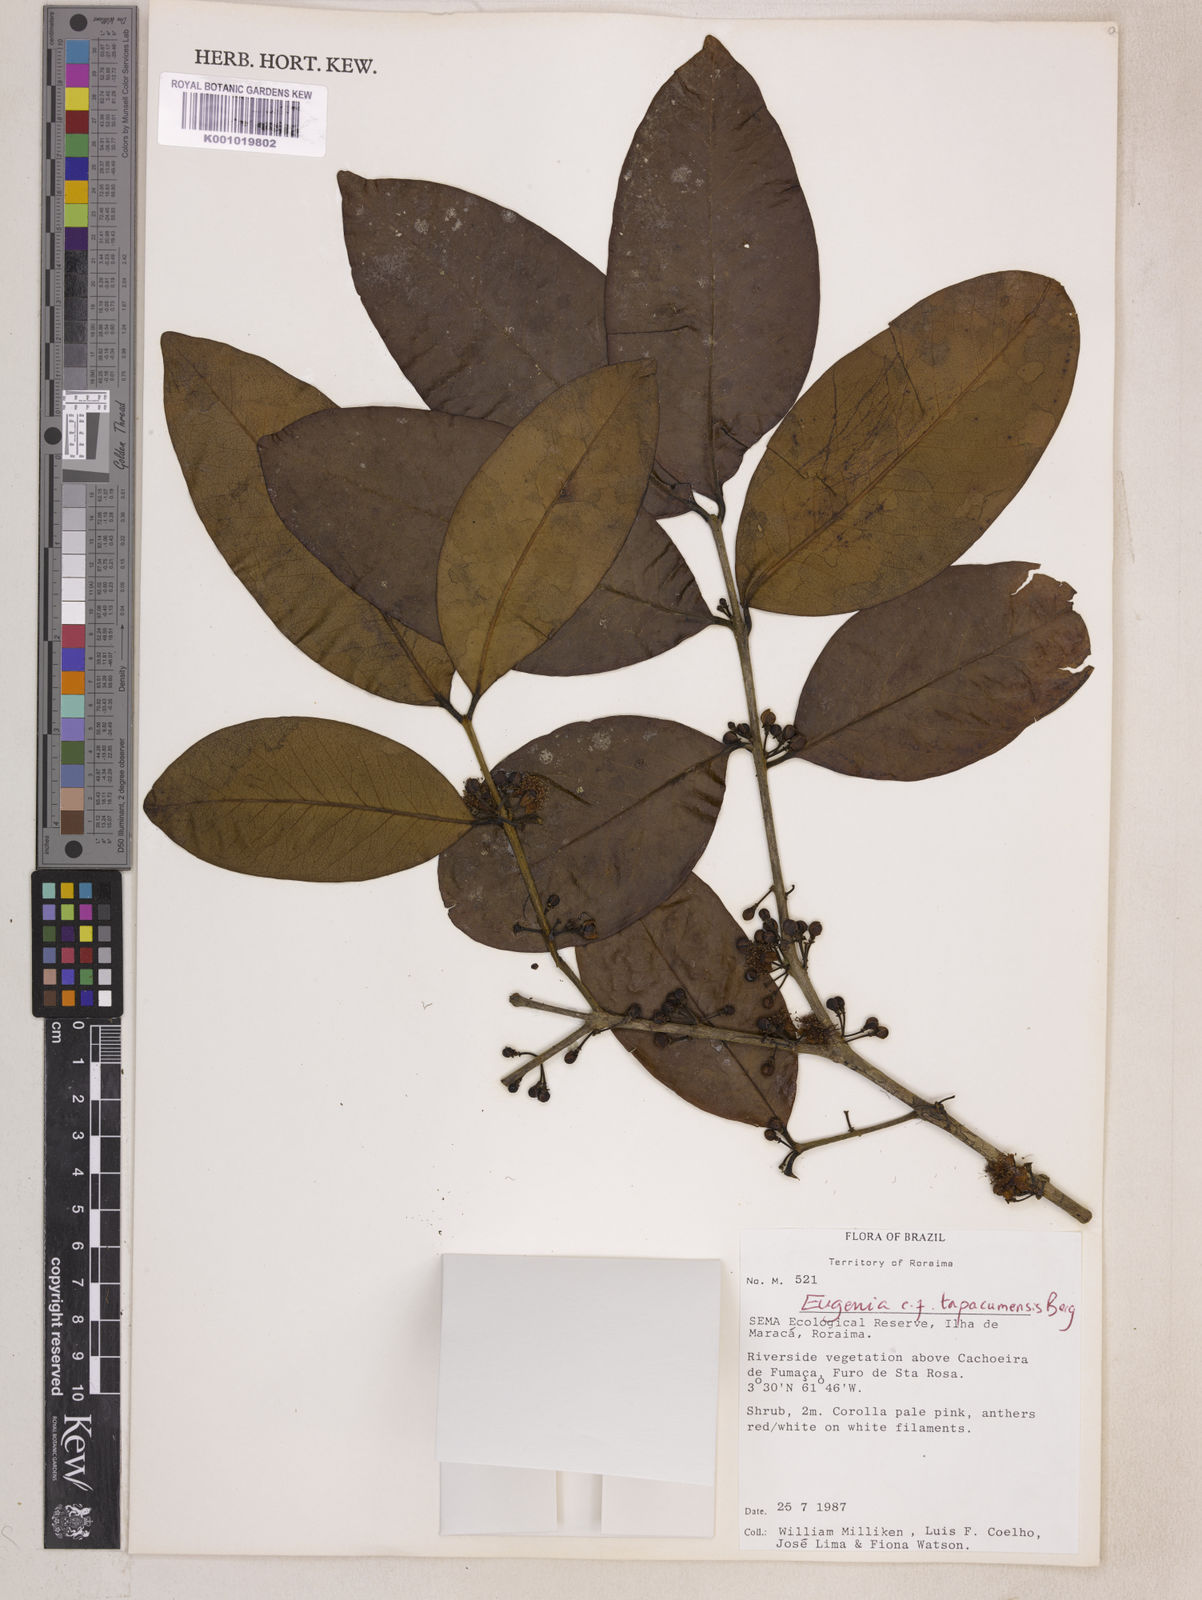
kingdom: Plantae
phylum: Tracheophyta
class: Magnoliopsida
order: Myrtales
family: Myrtaceae
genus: Eugenia
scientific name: Eugenia stictopetala
